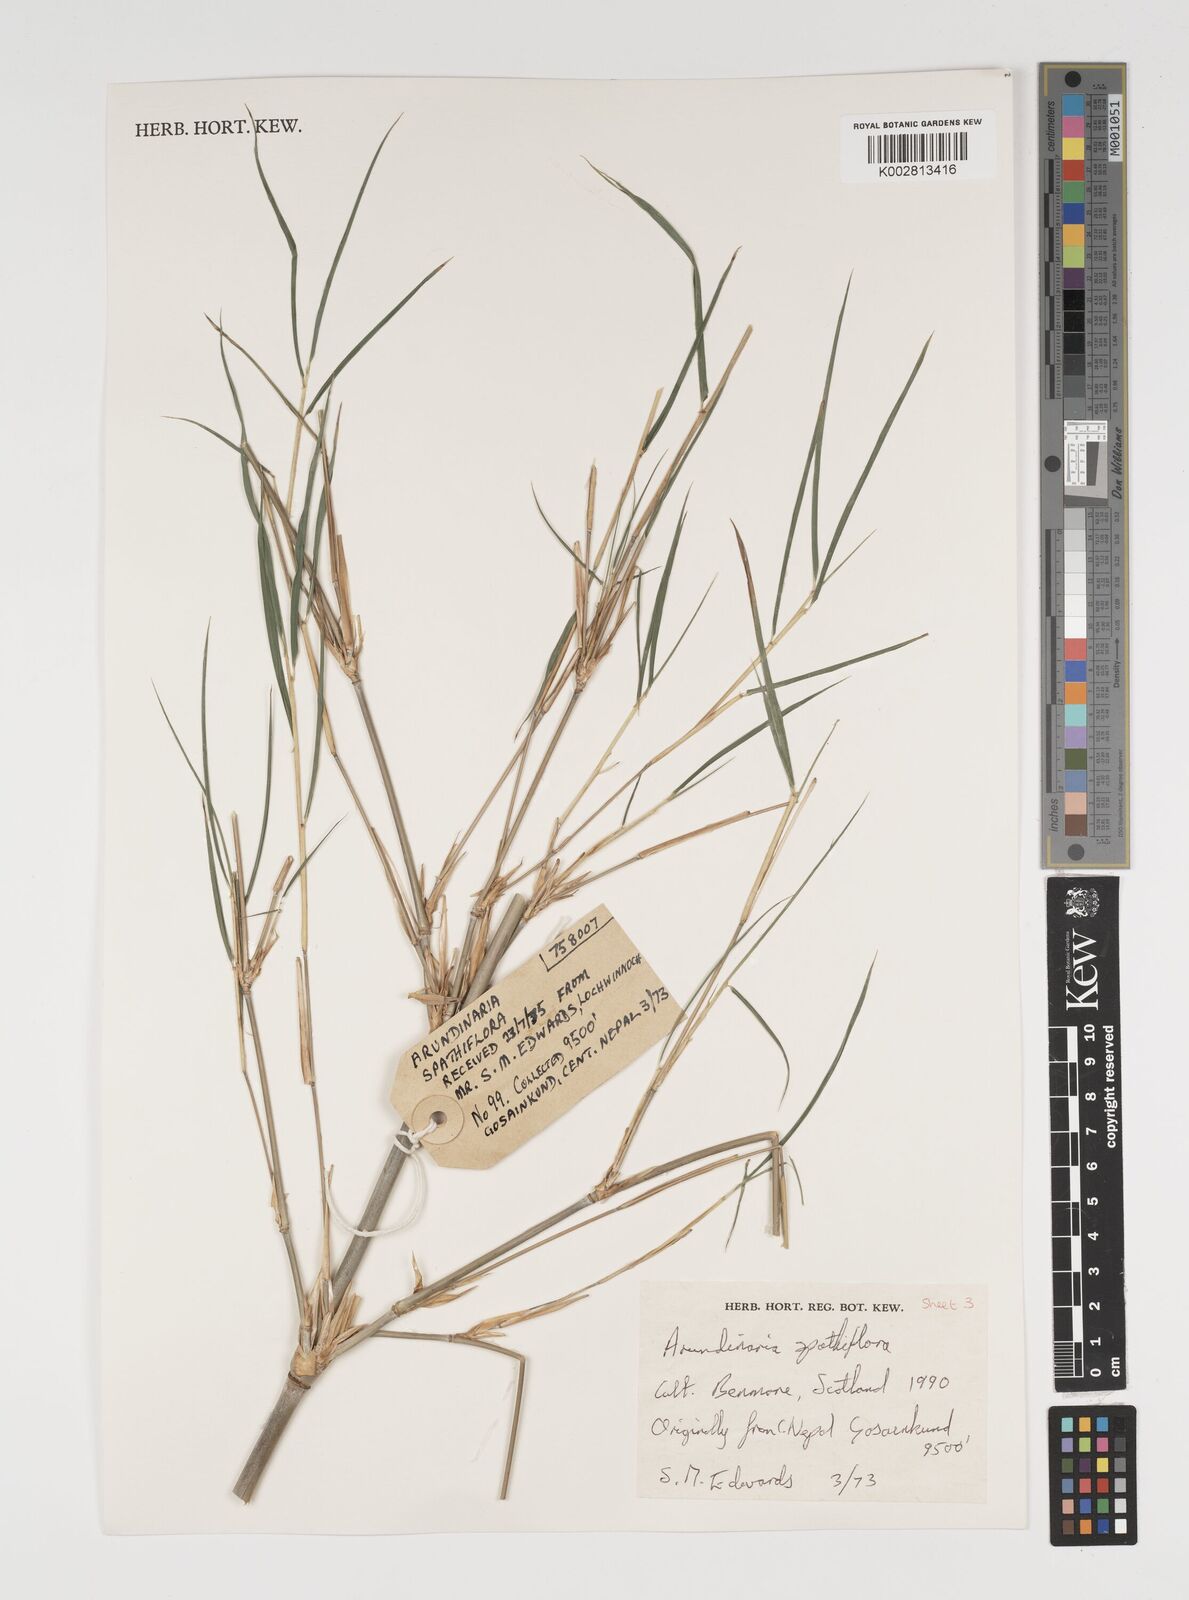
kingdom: Plantae
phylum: Tracheophyta
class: Liliopsida
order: Poales
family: Poaceae
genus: Thamnocalamus
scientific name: Thamnocalamus crassinodus
